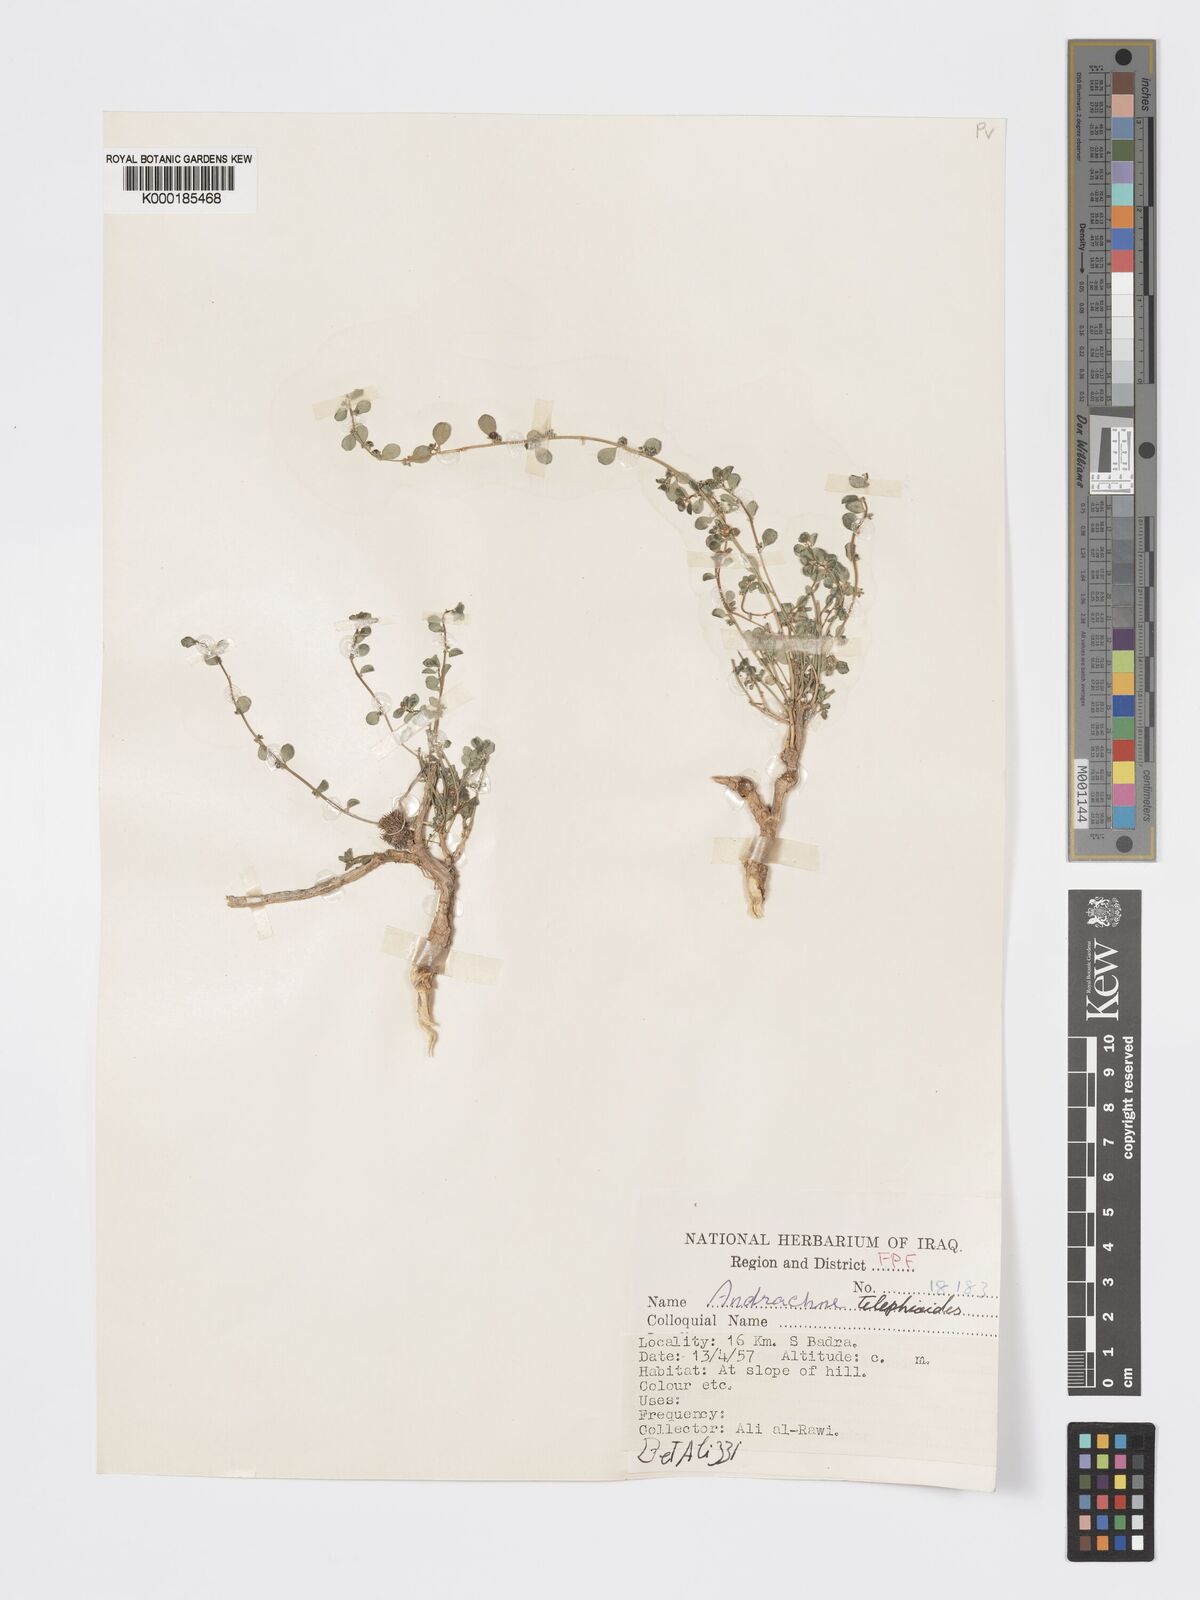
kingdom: Plantae
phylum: Tracheophyta
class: Magnoliopsida
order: Malpighiales
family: Phyllanthaceae
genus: Andrachne
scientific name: Andrachne telephioides
